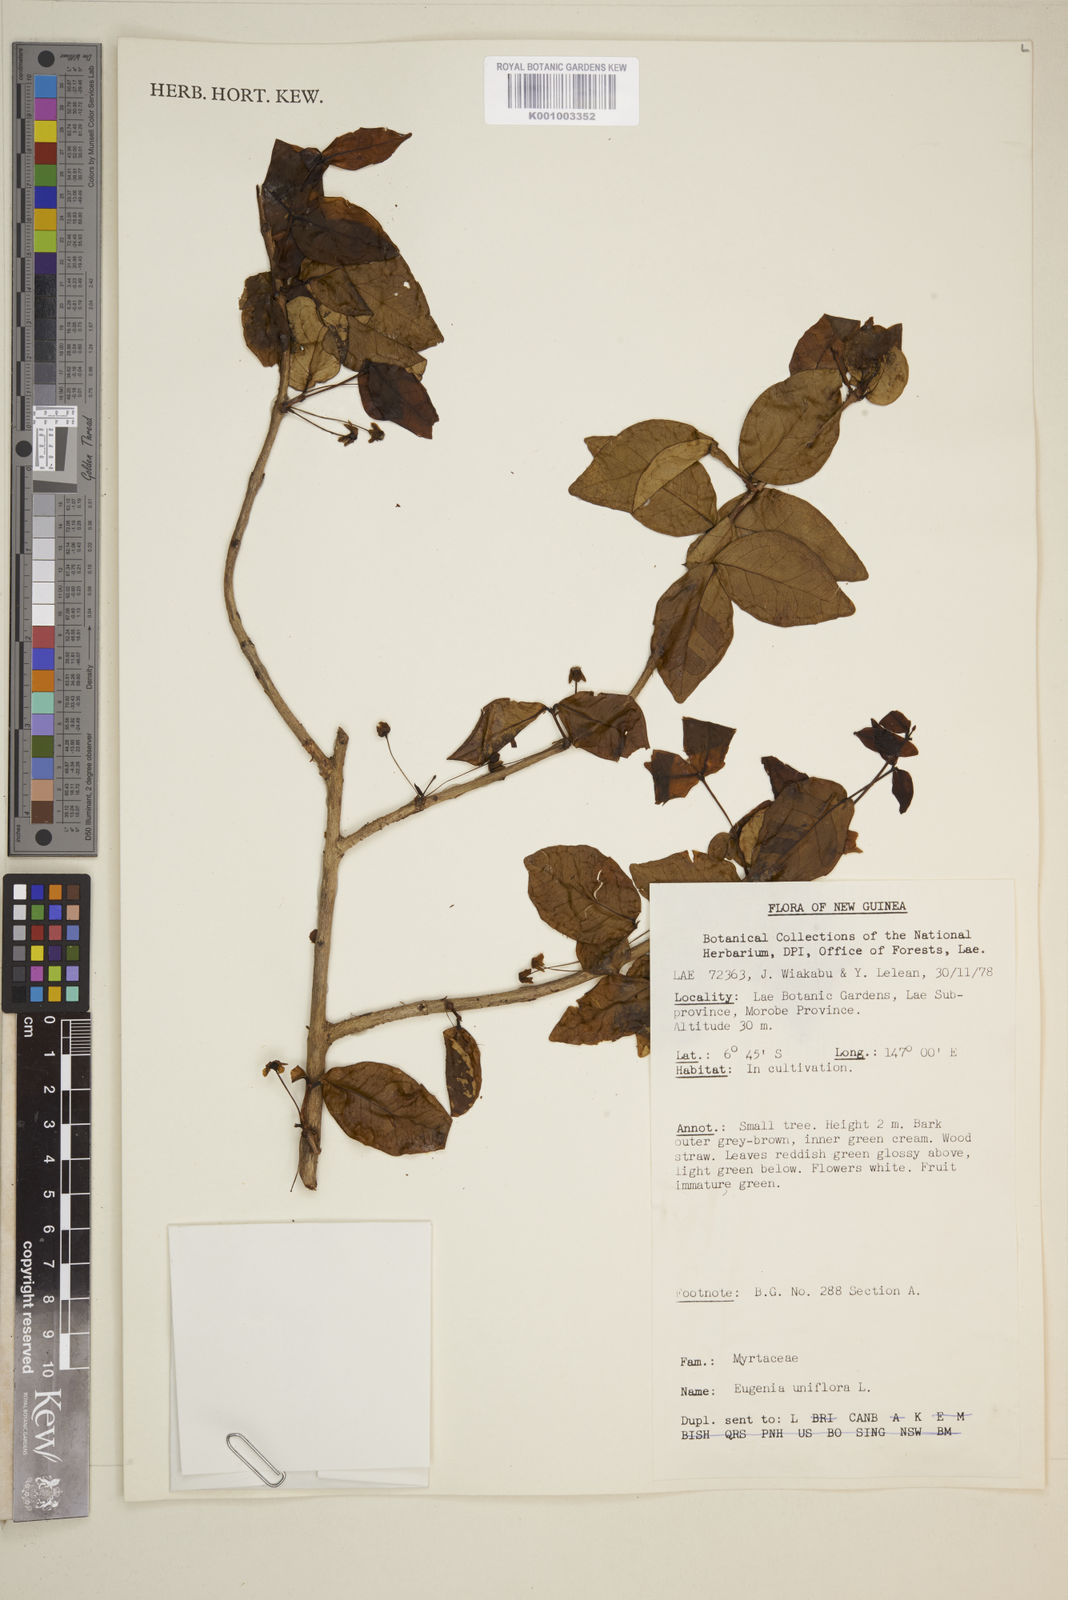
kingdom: Plantae
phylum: Tracheophyta
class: Magnoliopsida
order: Myrtales
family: Myrtaceae
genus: Eugenia
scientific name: Eugenia uniflora
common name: Surinam cherry
